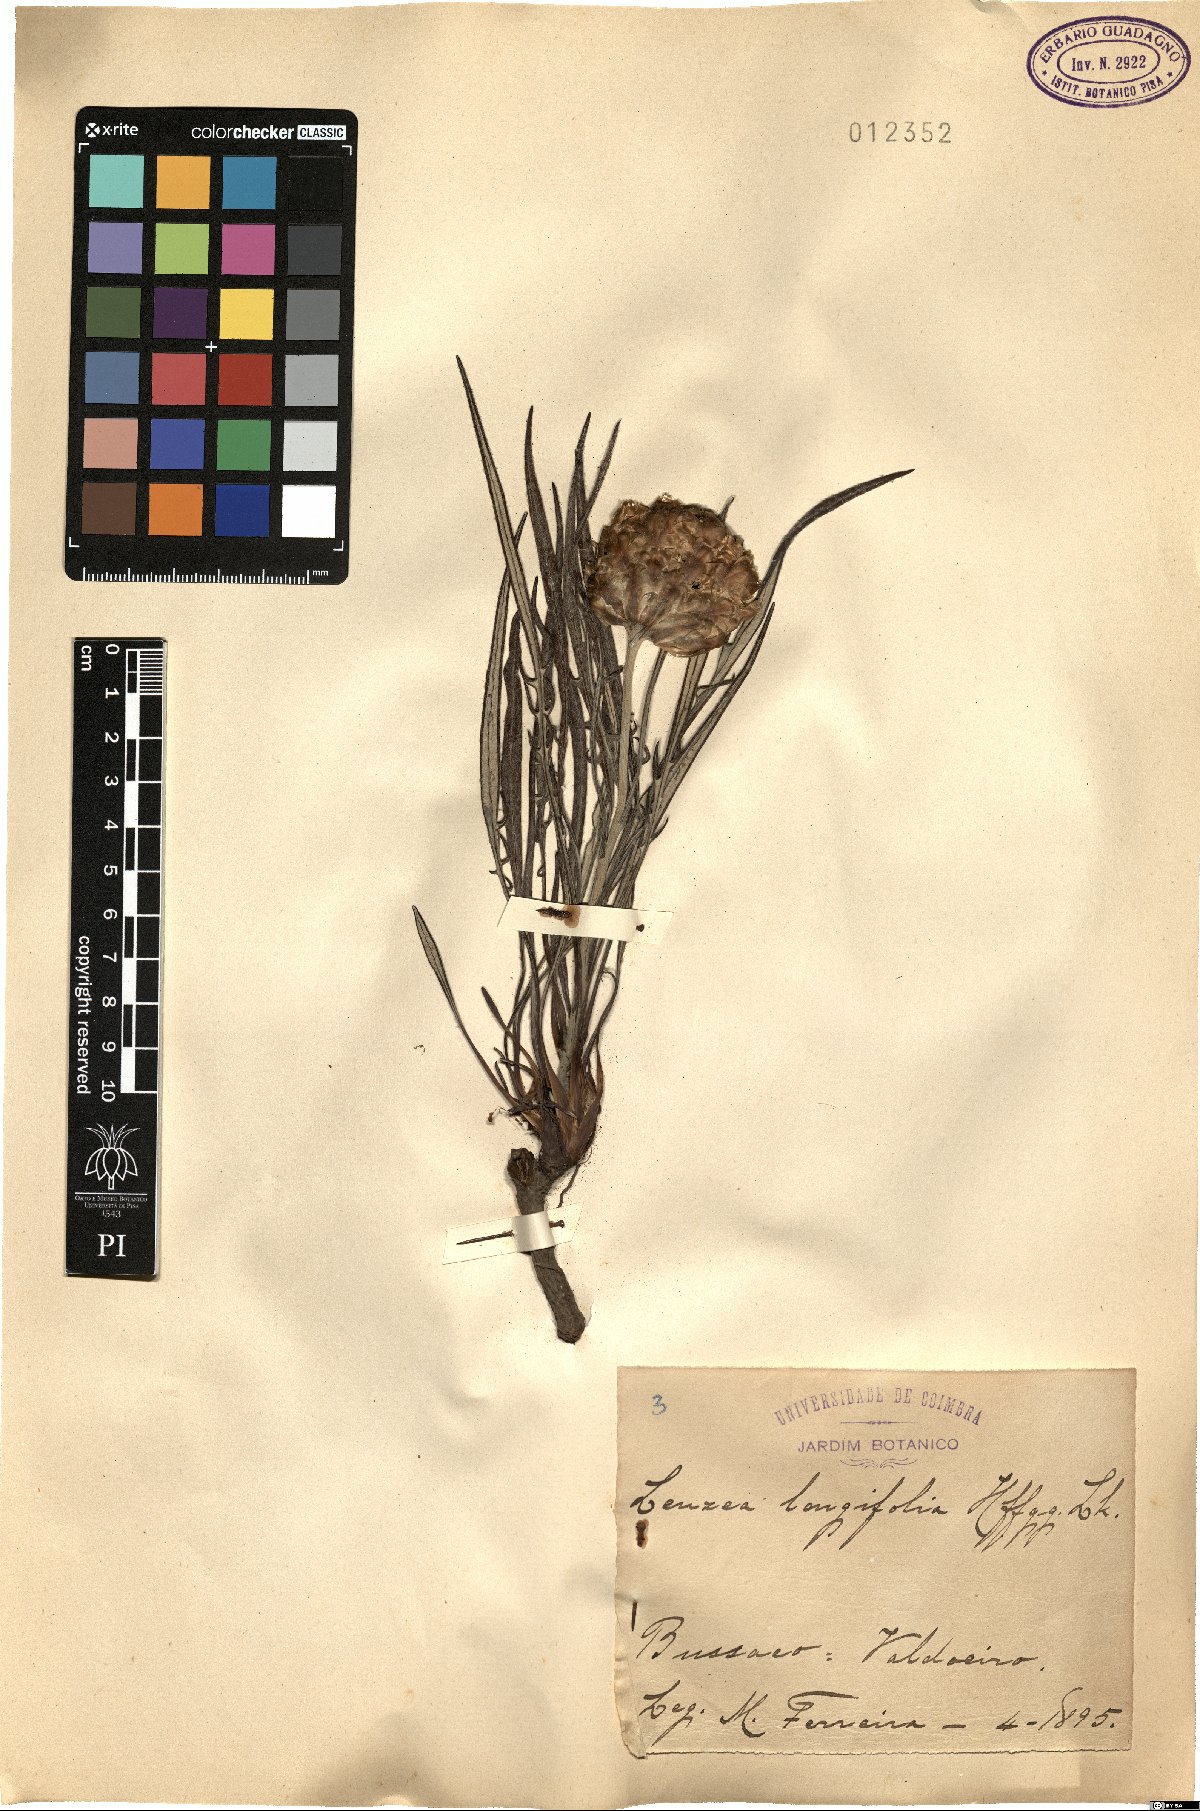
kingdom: Plantae
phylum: Tracheophyta
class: Magnoliopsida
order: Asterales
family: Asteraceae
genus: Leuzea
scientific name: Leuzea longifolia
